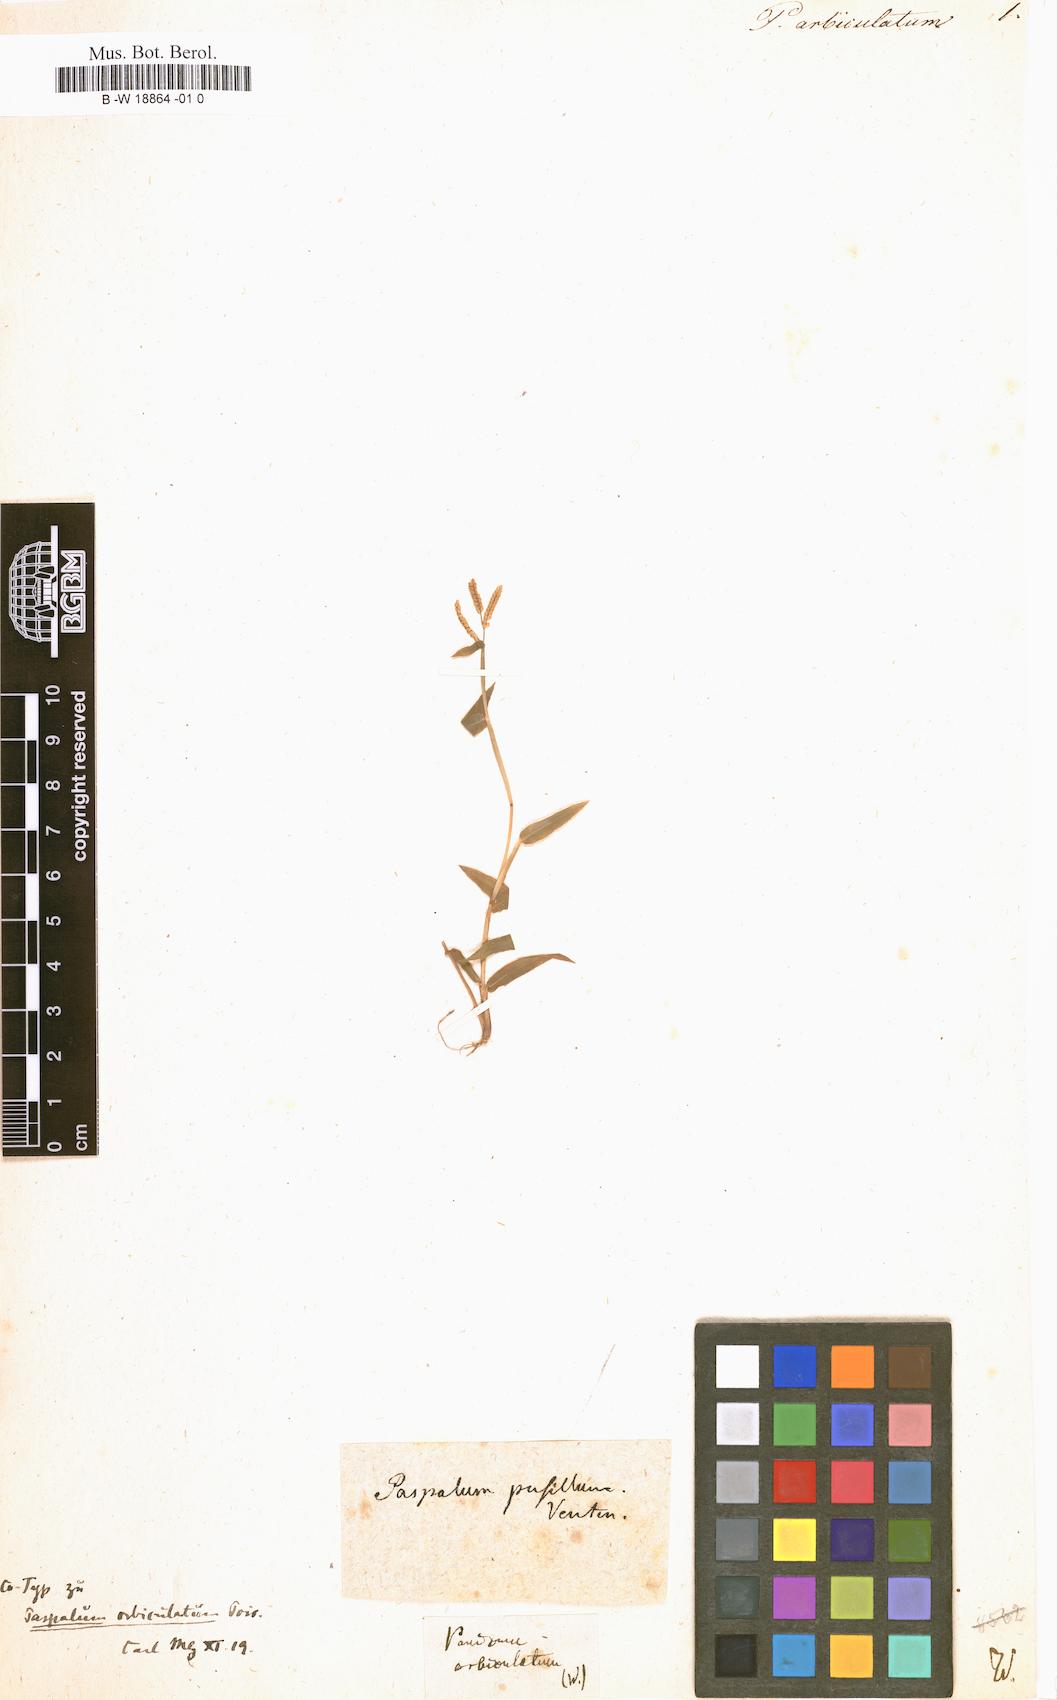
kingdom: Plantae
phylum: Tracheophyta
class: Liliopsida
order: Poales
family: Poaceae
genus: Panicum
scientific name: Panicum
